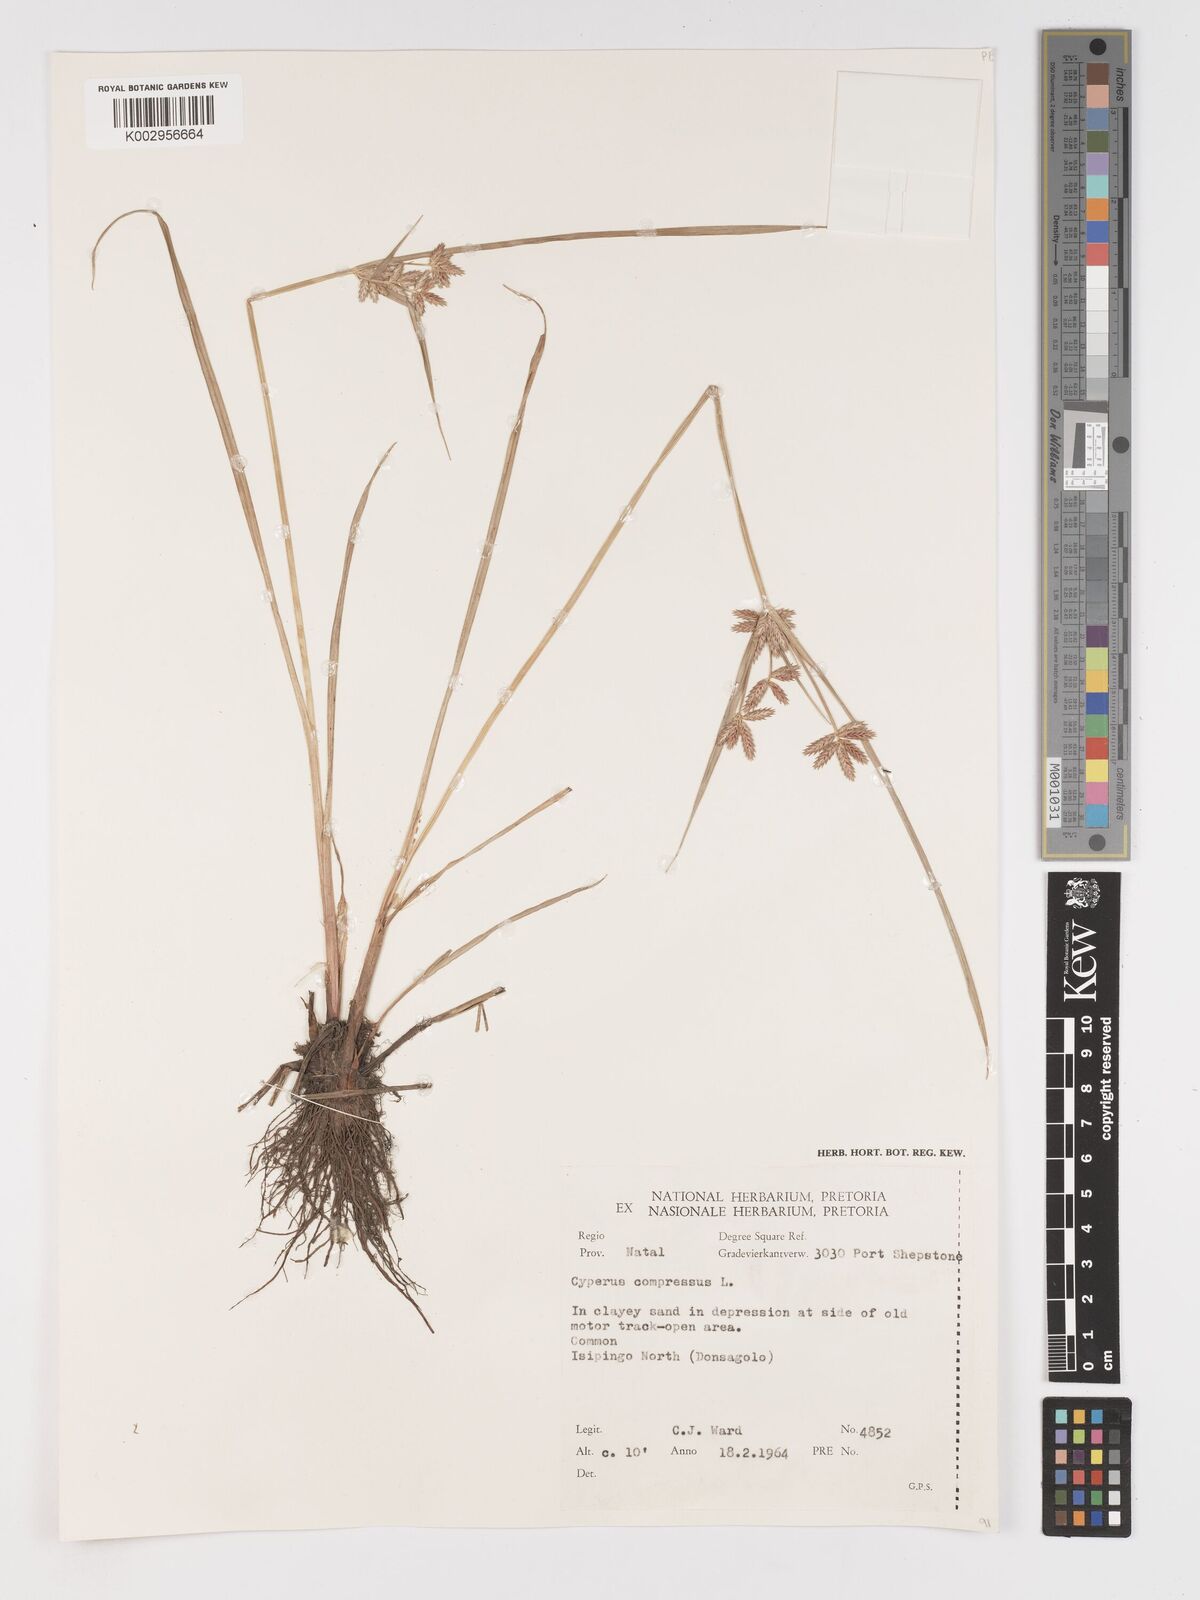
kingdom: Plantae
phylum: Tracheophyta
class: Liliopsida
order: Poales
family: Cyperaceae
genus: Cyperus
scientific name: Cyperus compressus
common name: Poorland flatsedge
